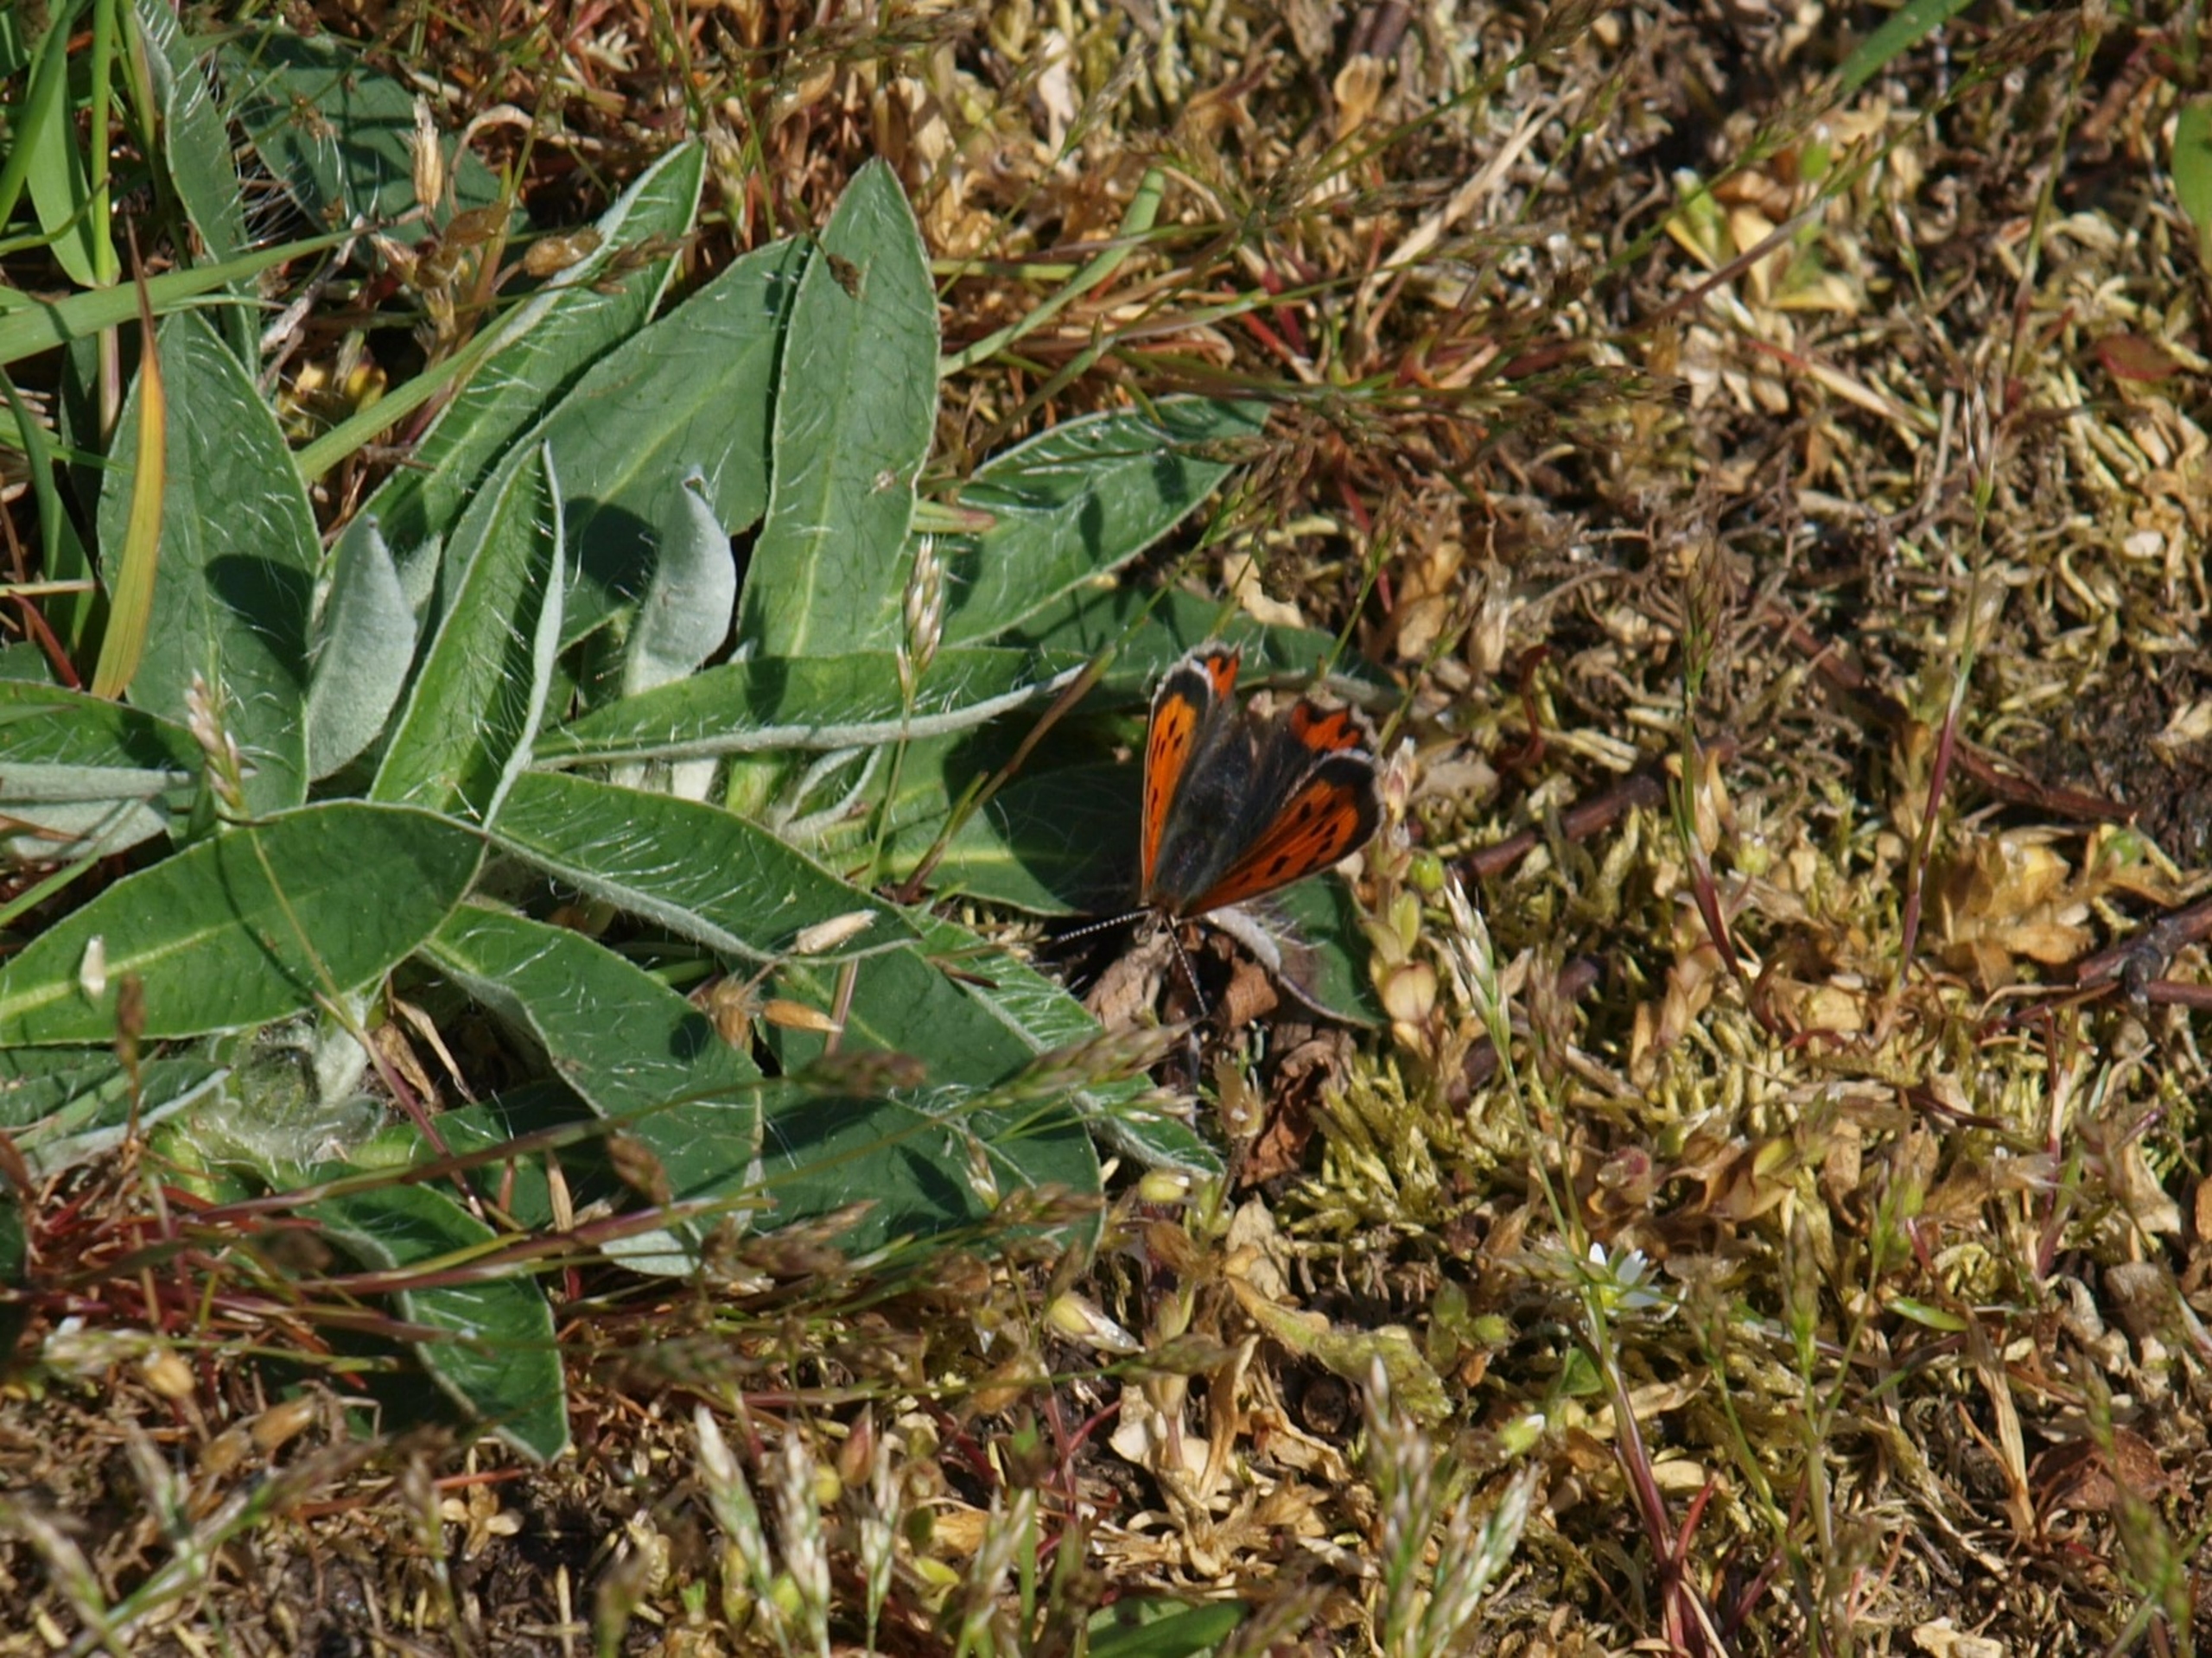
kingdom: Animalia
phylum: Arthropoda
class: Insecta
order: Lepidoptera
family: Lycaenidae
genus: Lycaena
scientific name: Lycaena phlaeas
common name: Lille ildfugl
